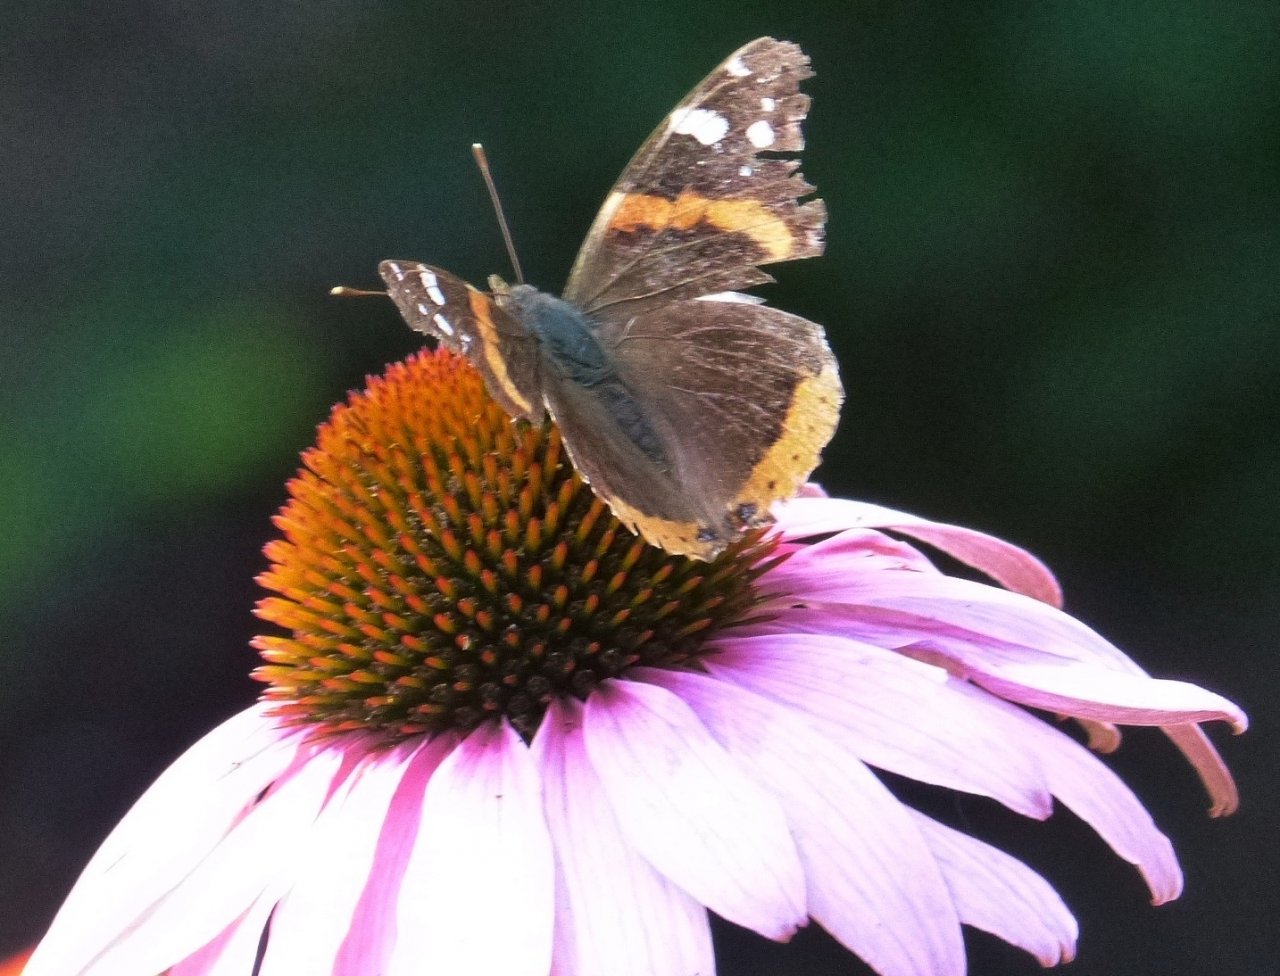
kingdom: Animalia
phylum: Arthropoda
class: Insecta
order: Lepidoptera
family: Nymphalidae
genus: Vanessa
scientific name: Vanessa atalanta
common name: Red Admiral
